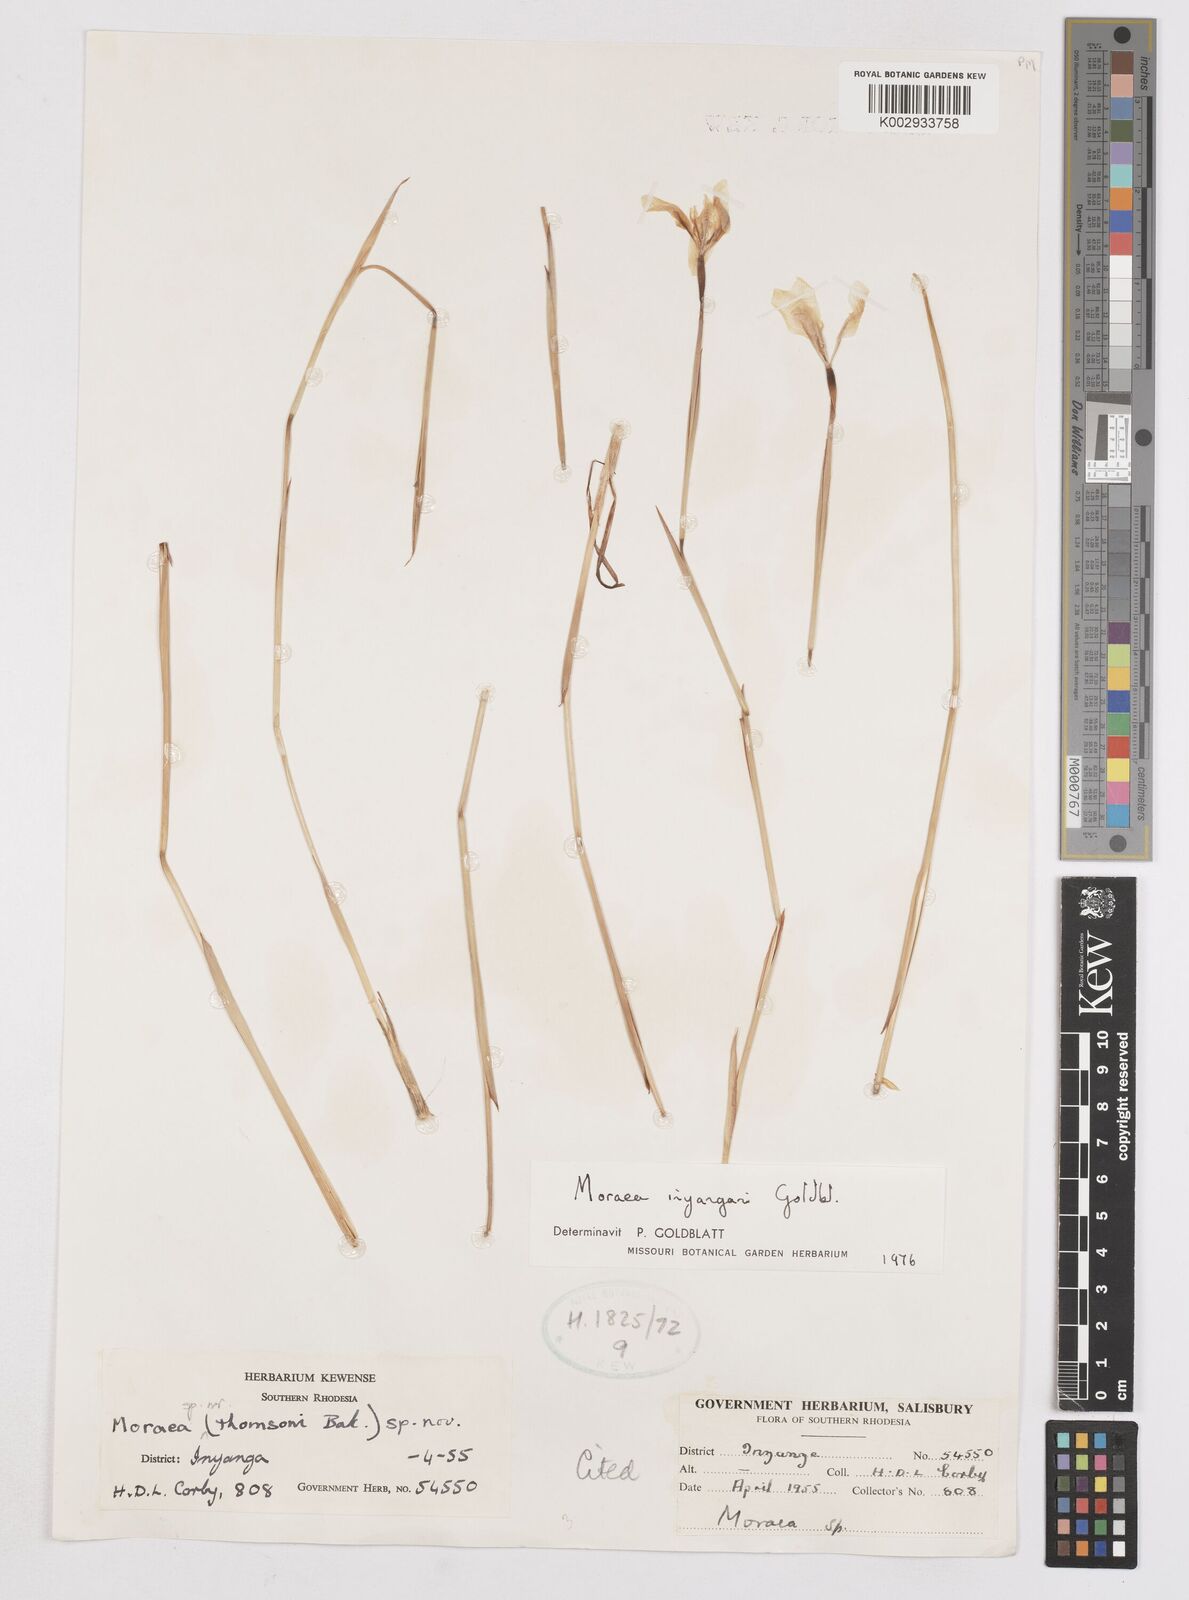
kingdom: Plantae
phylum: Tracheophyta
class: Liliopsida
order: Asparagales
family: Iridaceae
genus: Moraea
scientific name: Moraea inyangani
